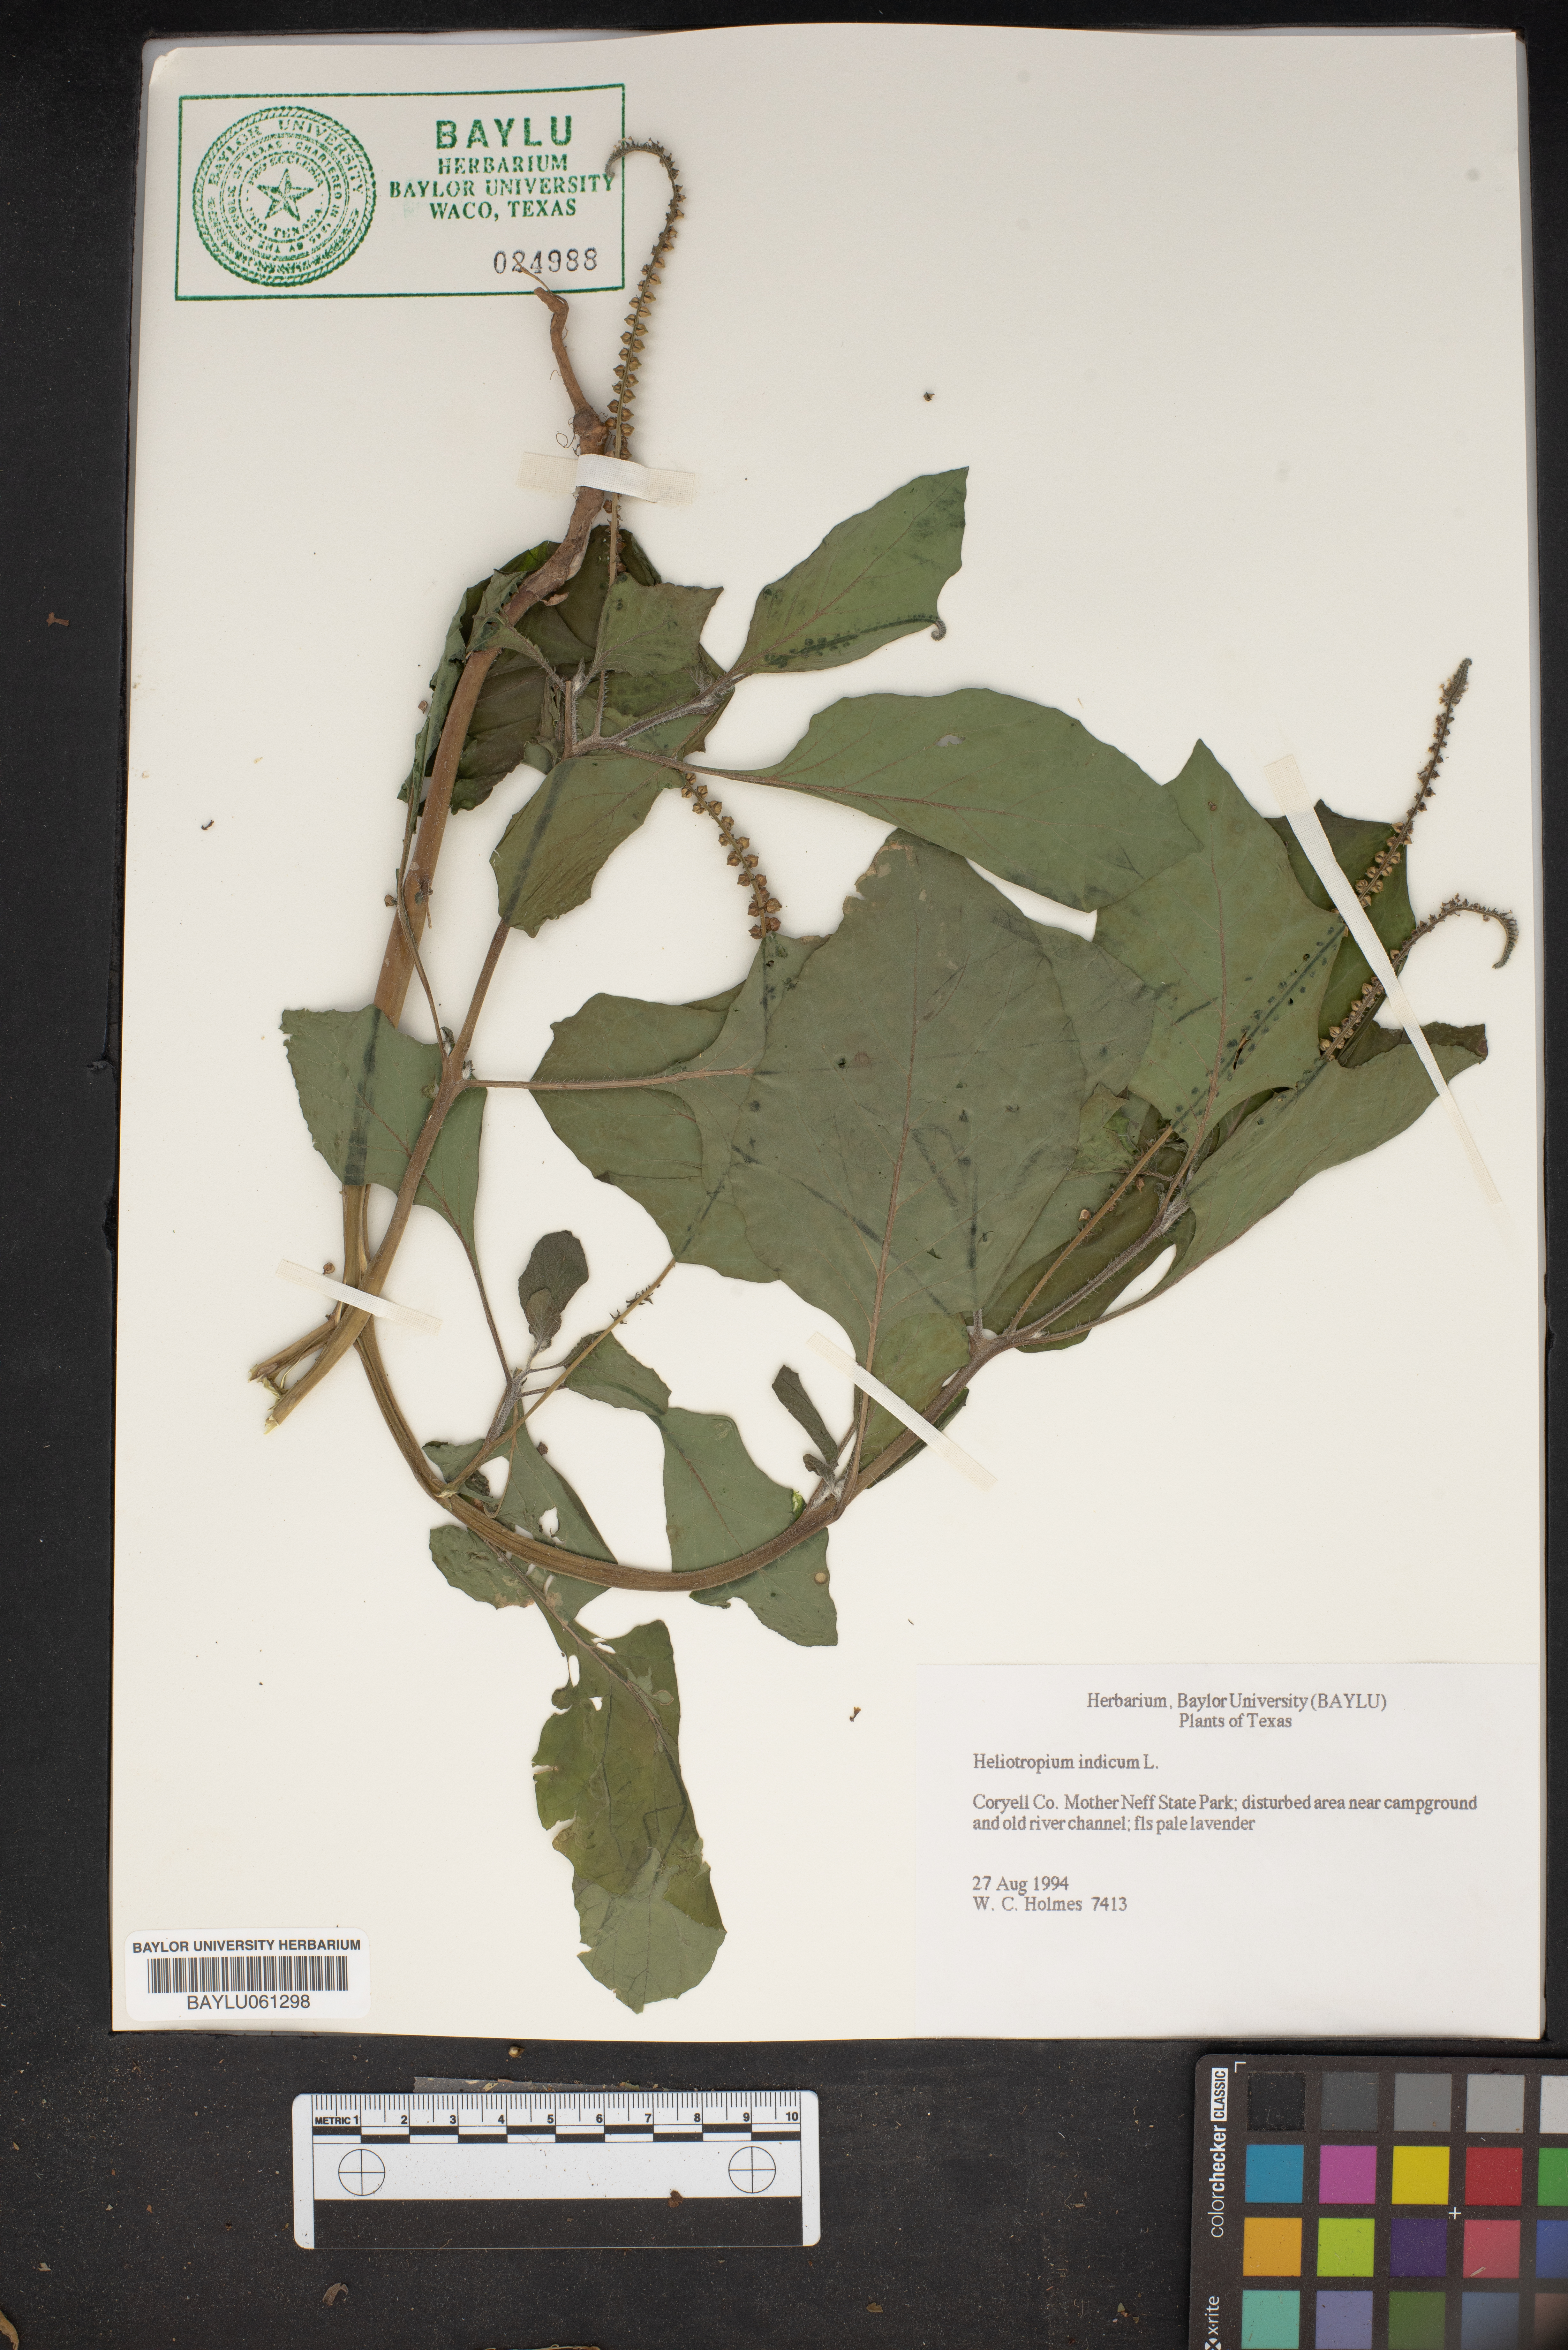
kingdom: Plantae
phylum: Tracheophyta
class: Magnoliopsida
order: Boraginales
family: Heliotropiaceae
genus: Heliotropium
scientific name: Heliotropium indicum
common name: Indian heliotrope
